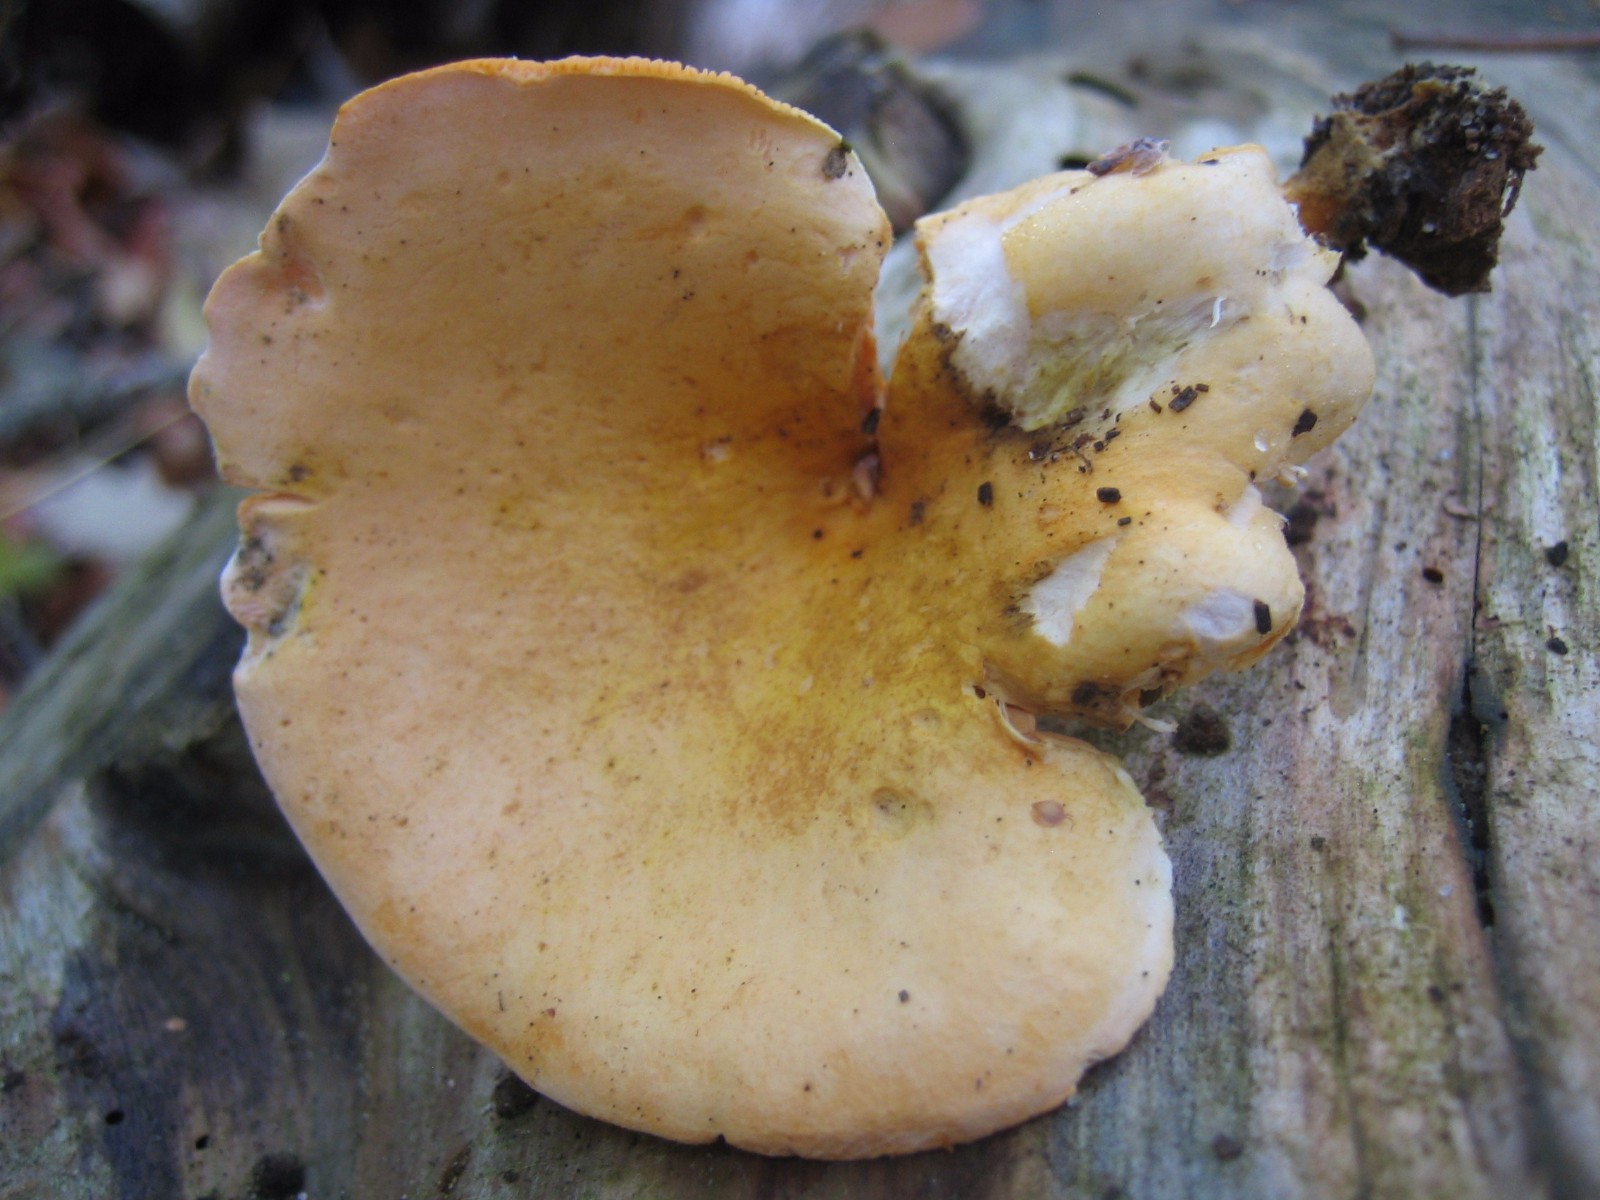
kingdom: Fungi
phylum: Basidiomycota
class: Agaricomycetes
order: Boletales
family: Hygrophoropsidaceae
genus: Hygrophoropsis
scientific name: Hygrophoropsis aurantiaca
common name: almindelig orangekantarel
